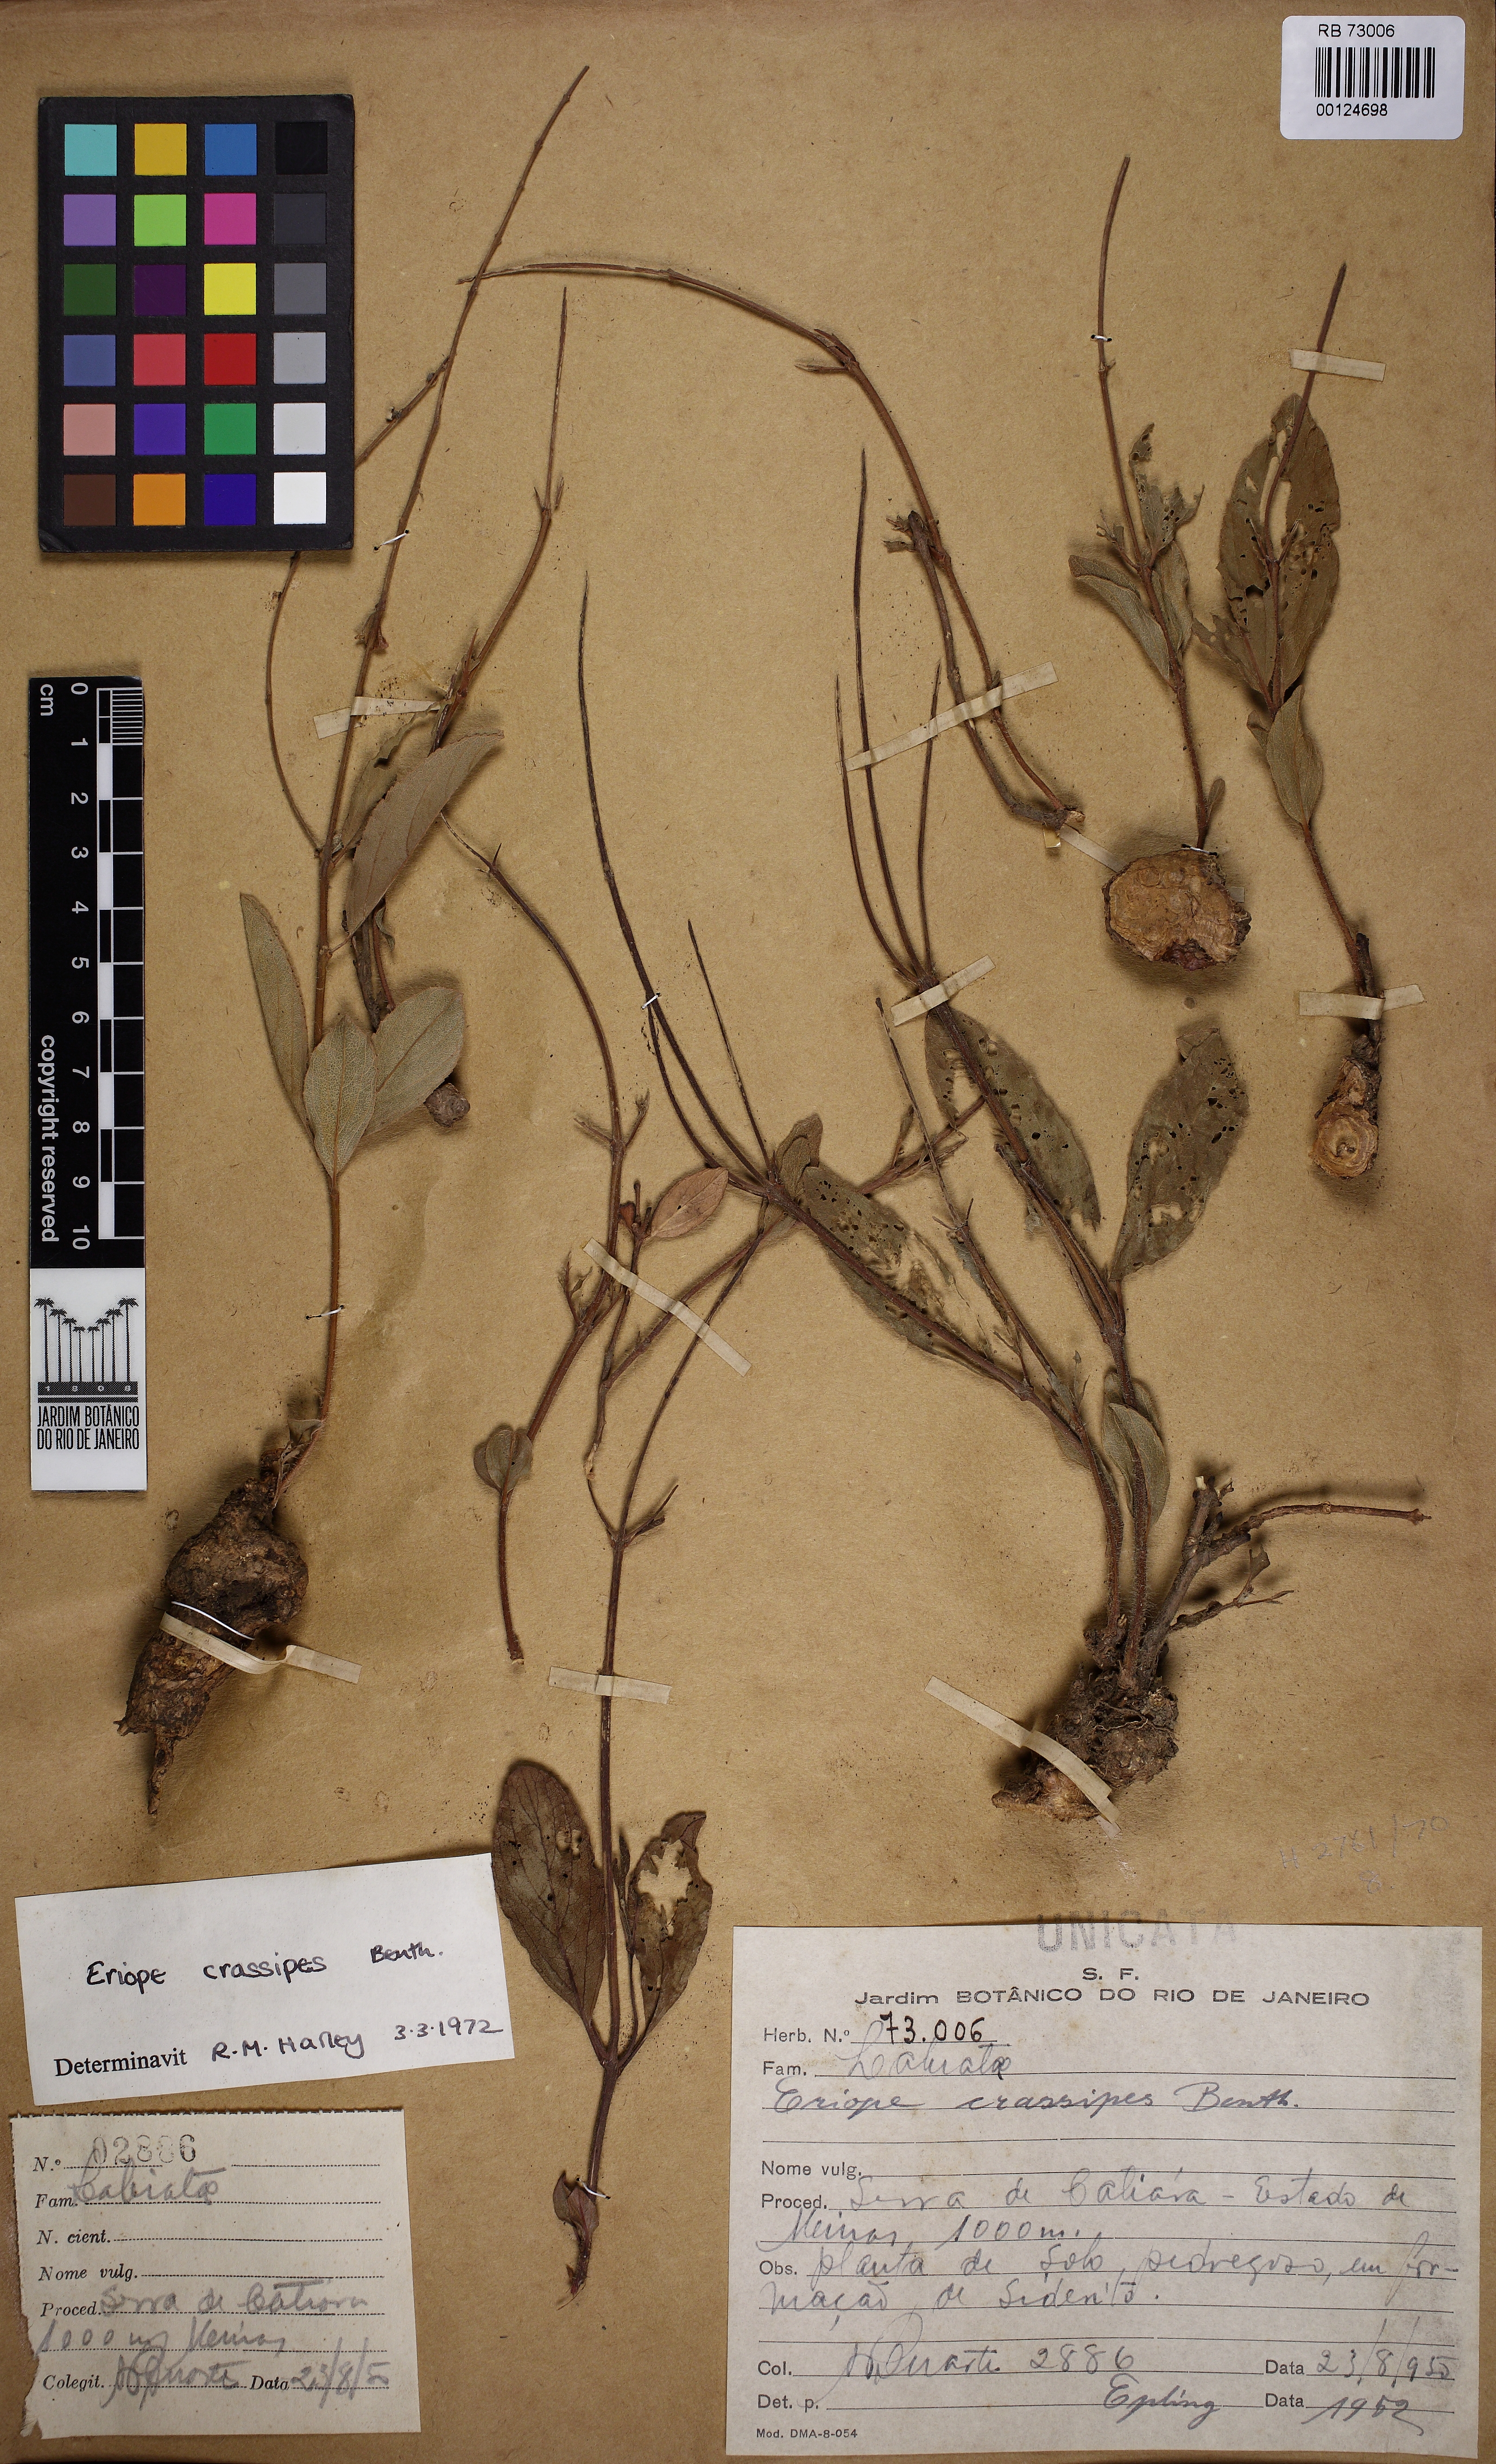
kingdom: Plantae
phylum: Tracheophyta
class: Magnoliopsida
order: Lamiales
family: Lamiaceae
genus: Eriope
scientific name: Eriope crassipes
